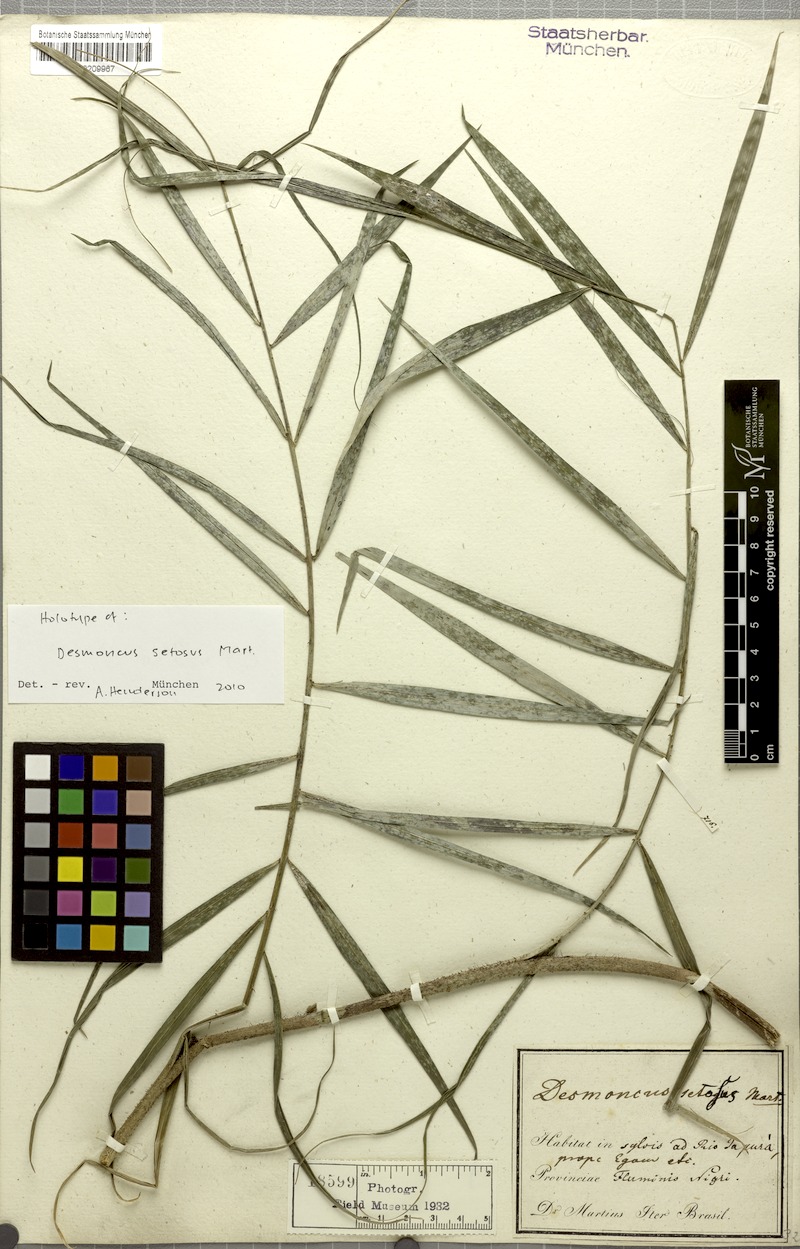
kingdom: Plantae
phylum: Tracheophyta
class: Liliopsida
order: Arecales
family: Arecaceae
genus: Desmoncus
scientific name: Desmoncus polyacanthos
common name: Suriname bramble palm
